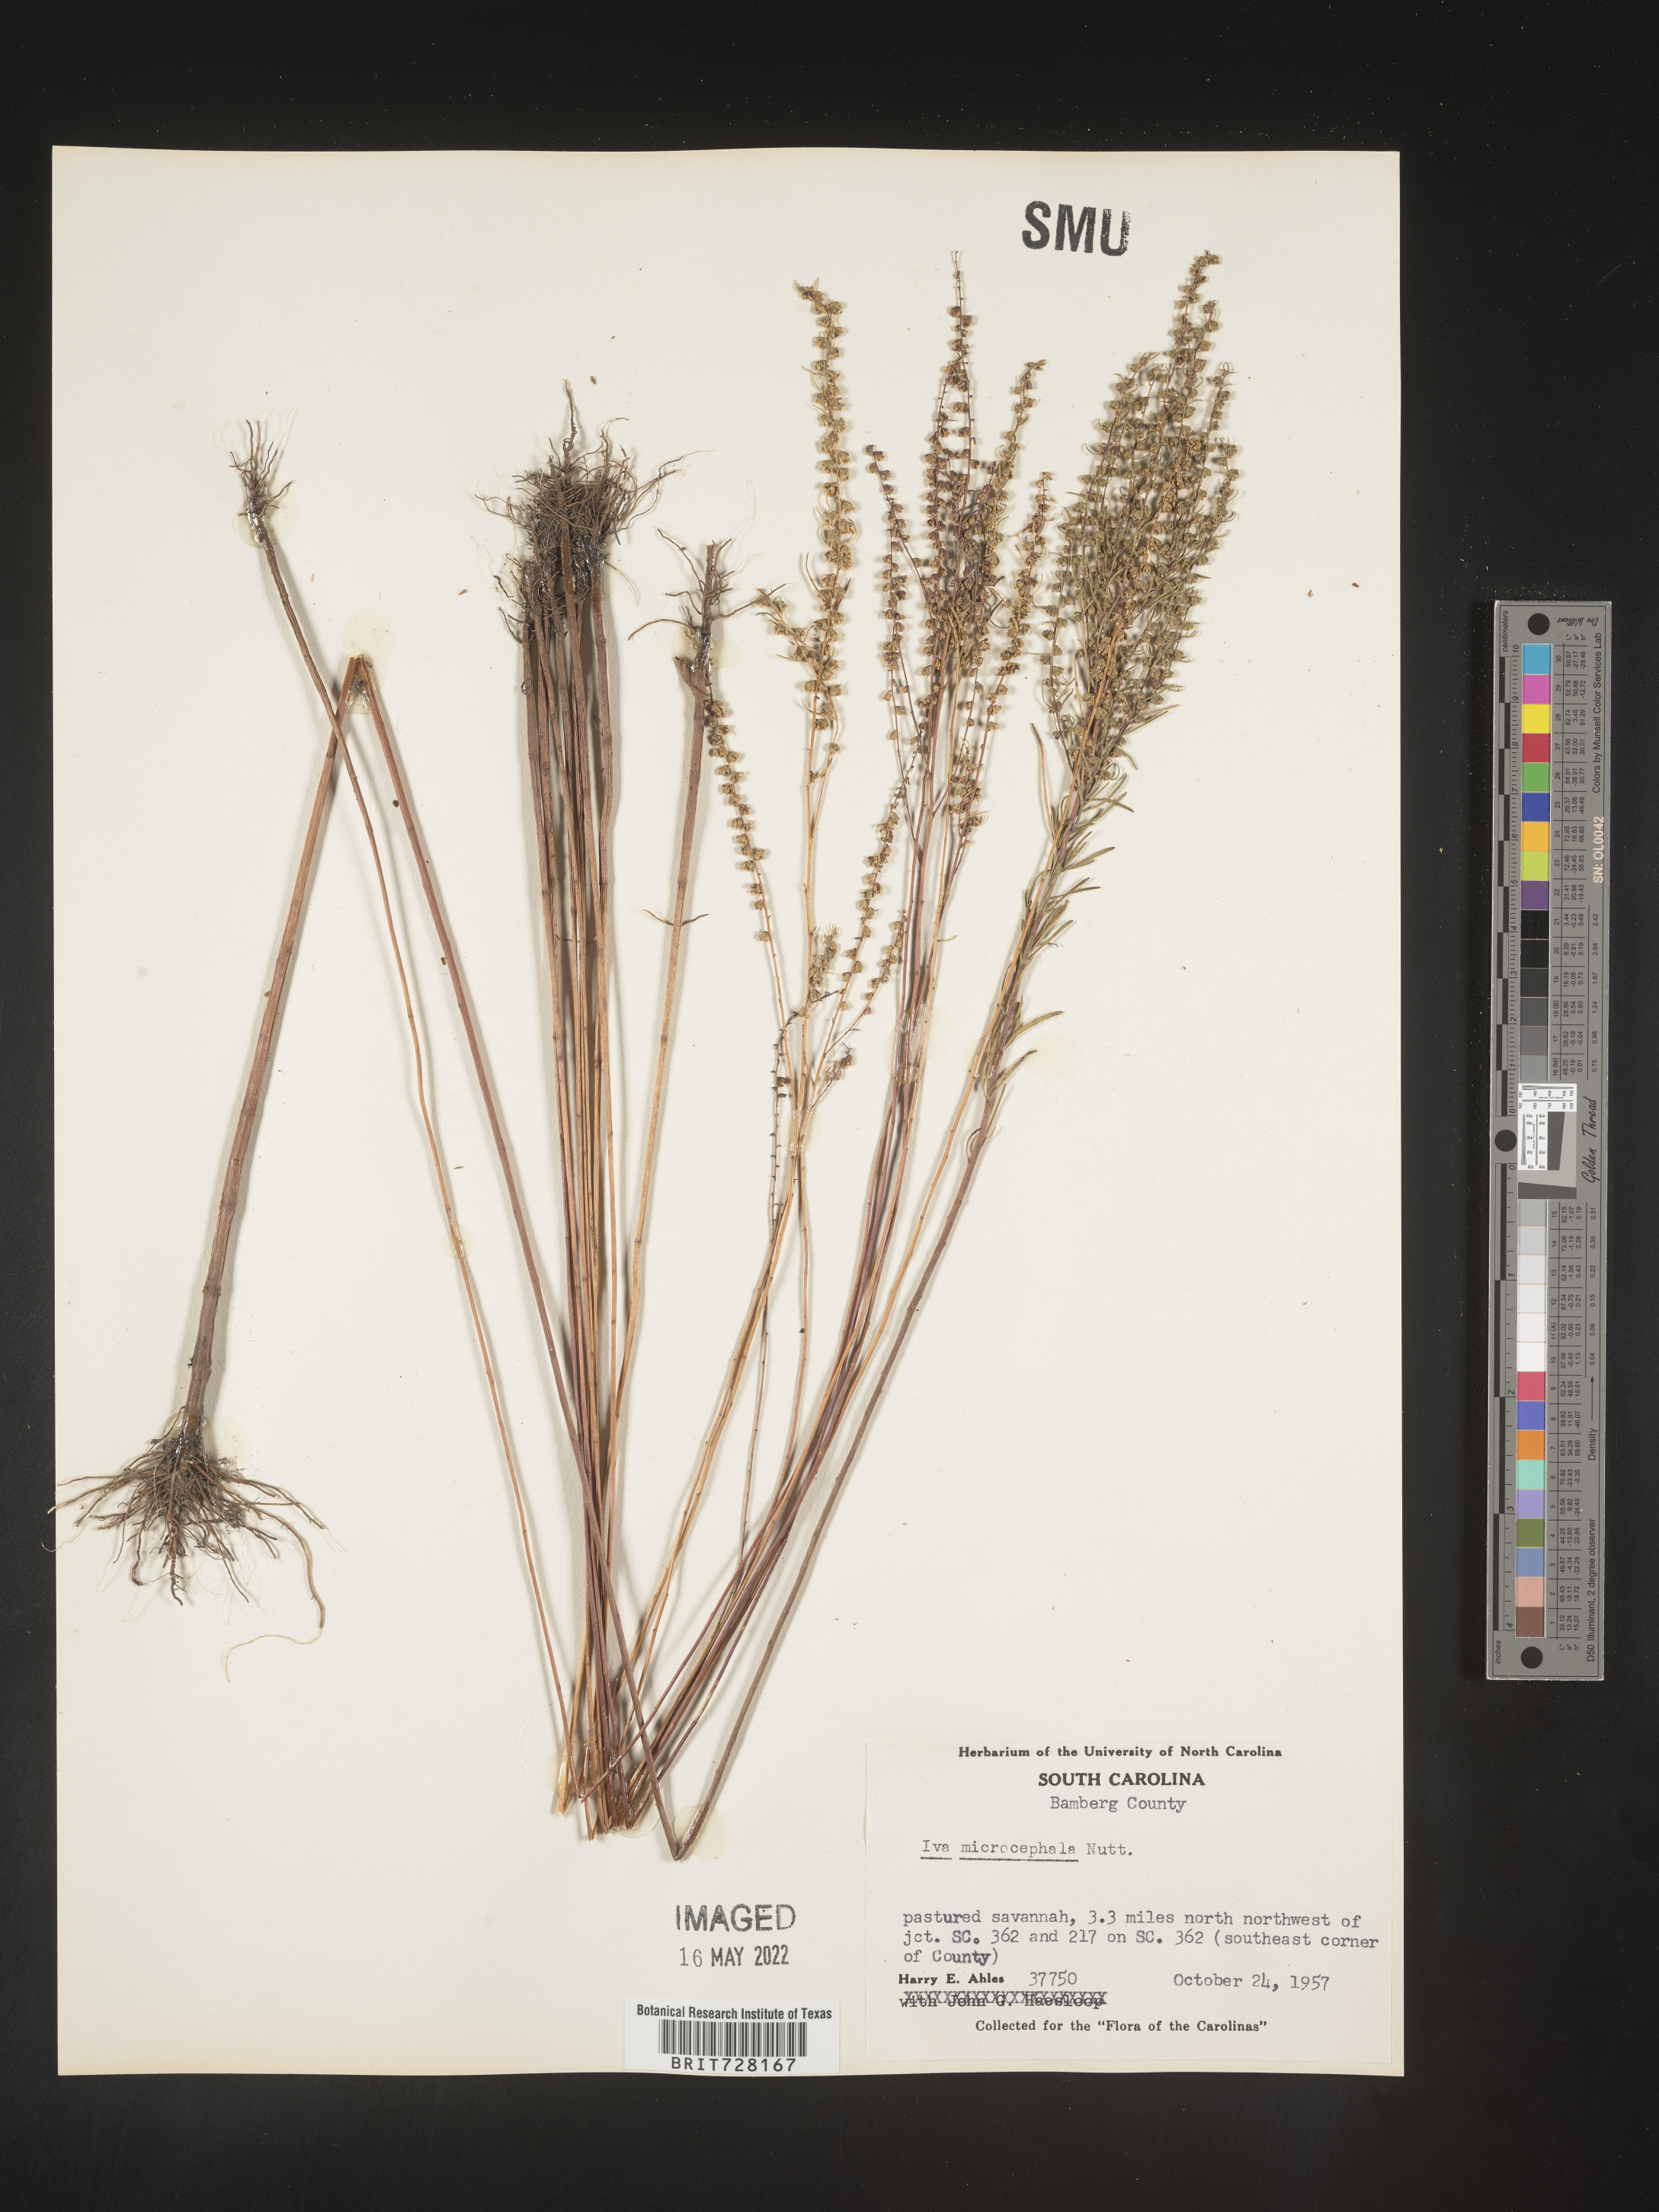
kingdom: Plantae
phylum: Tracheophyta
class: Magnoliopsida
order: Asterales
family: Asteraceae
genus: Iva
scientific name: Iva microcephala
